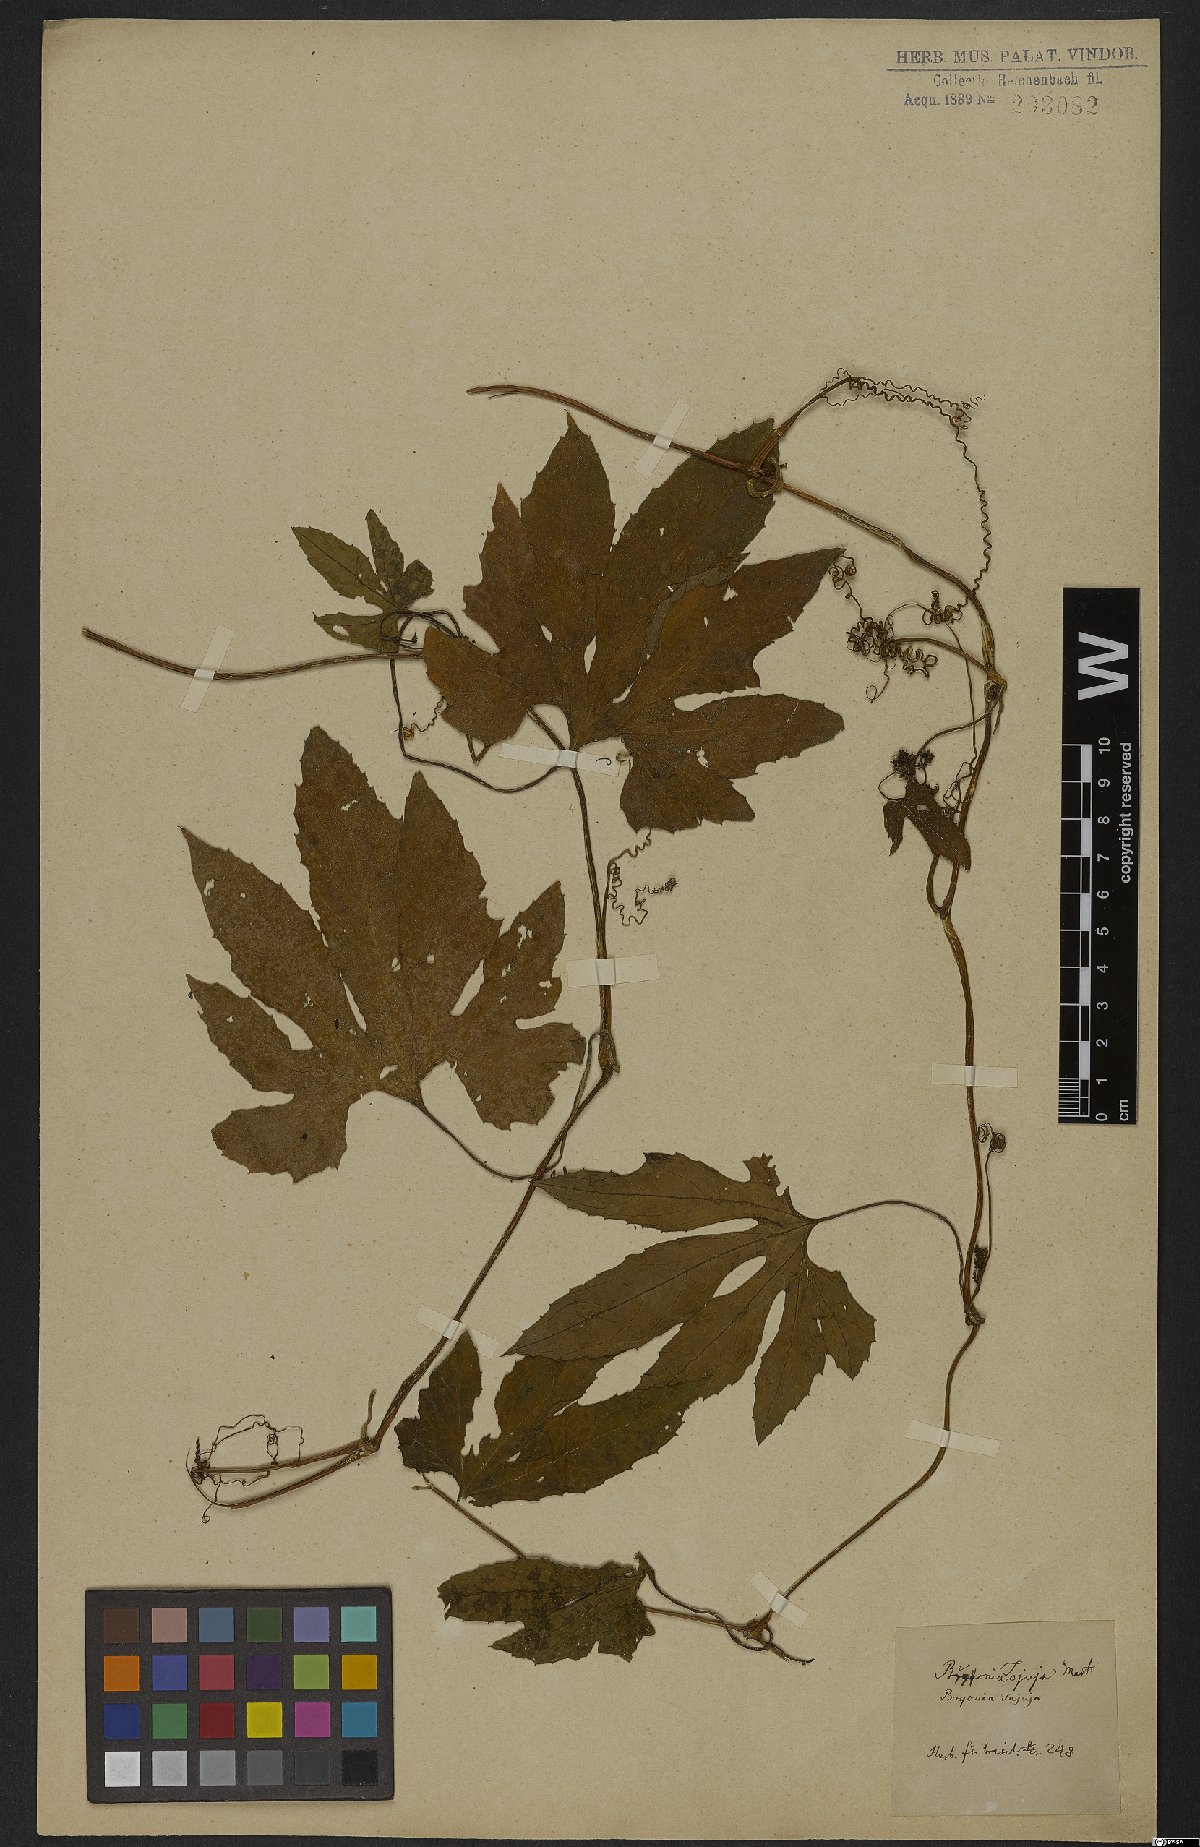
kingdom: Plantae
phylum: Tracheophyta
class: Magnoliopsida
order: Cucurbitales
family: Cucurbitaceae
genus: Cayaponia
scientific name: Cayaponia tayuya
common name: Tayuya
